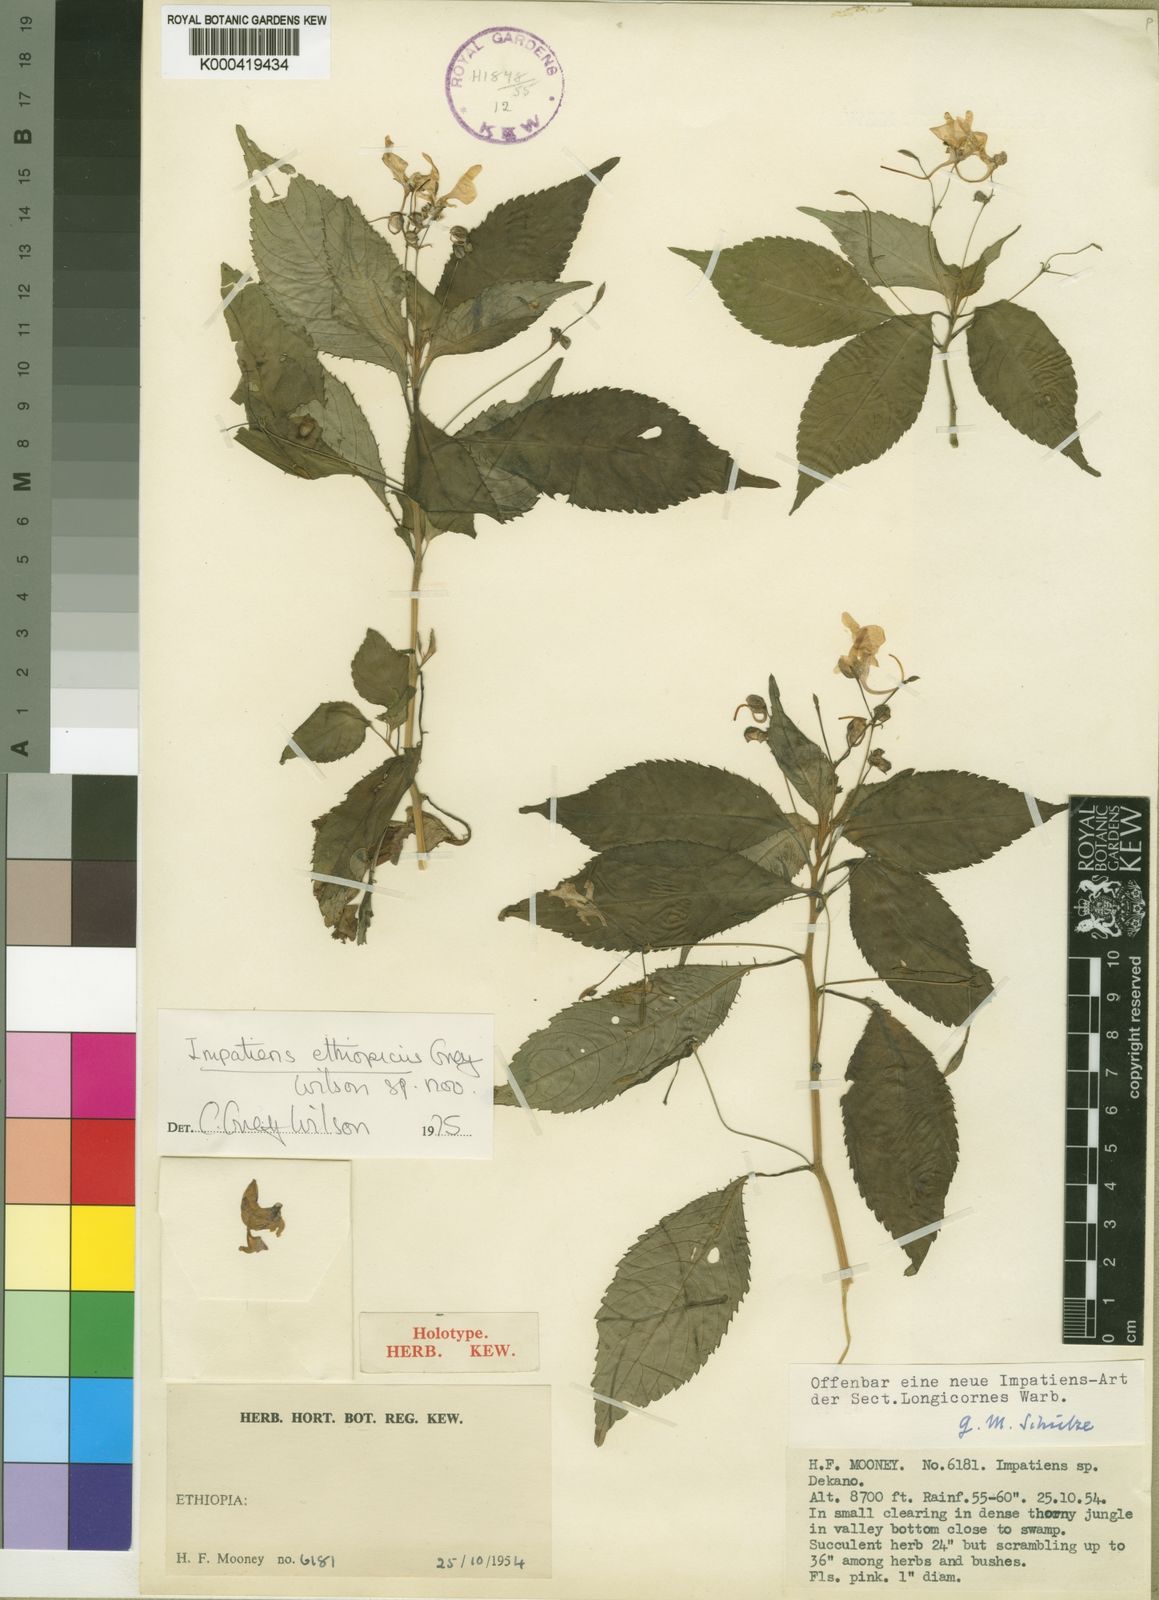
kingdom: Plantae
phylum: Tracheophyta
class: Magnoliopsida
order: Ericales
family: Balsaminaceae
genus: Impatiens
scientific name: Impatiens ethiopica
